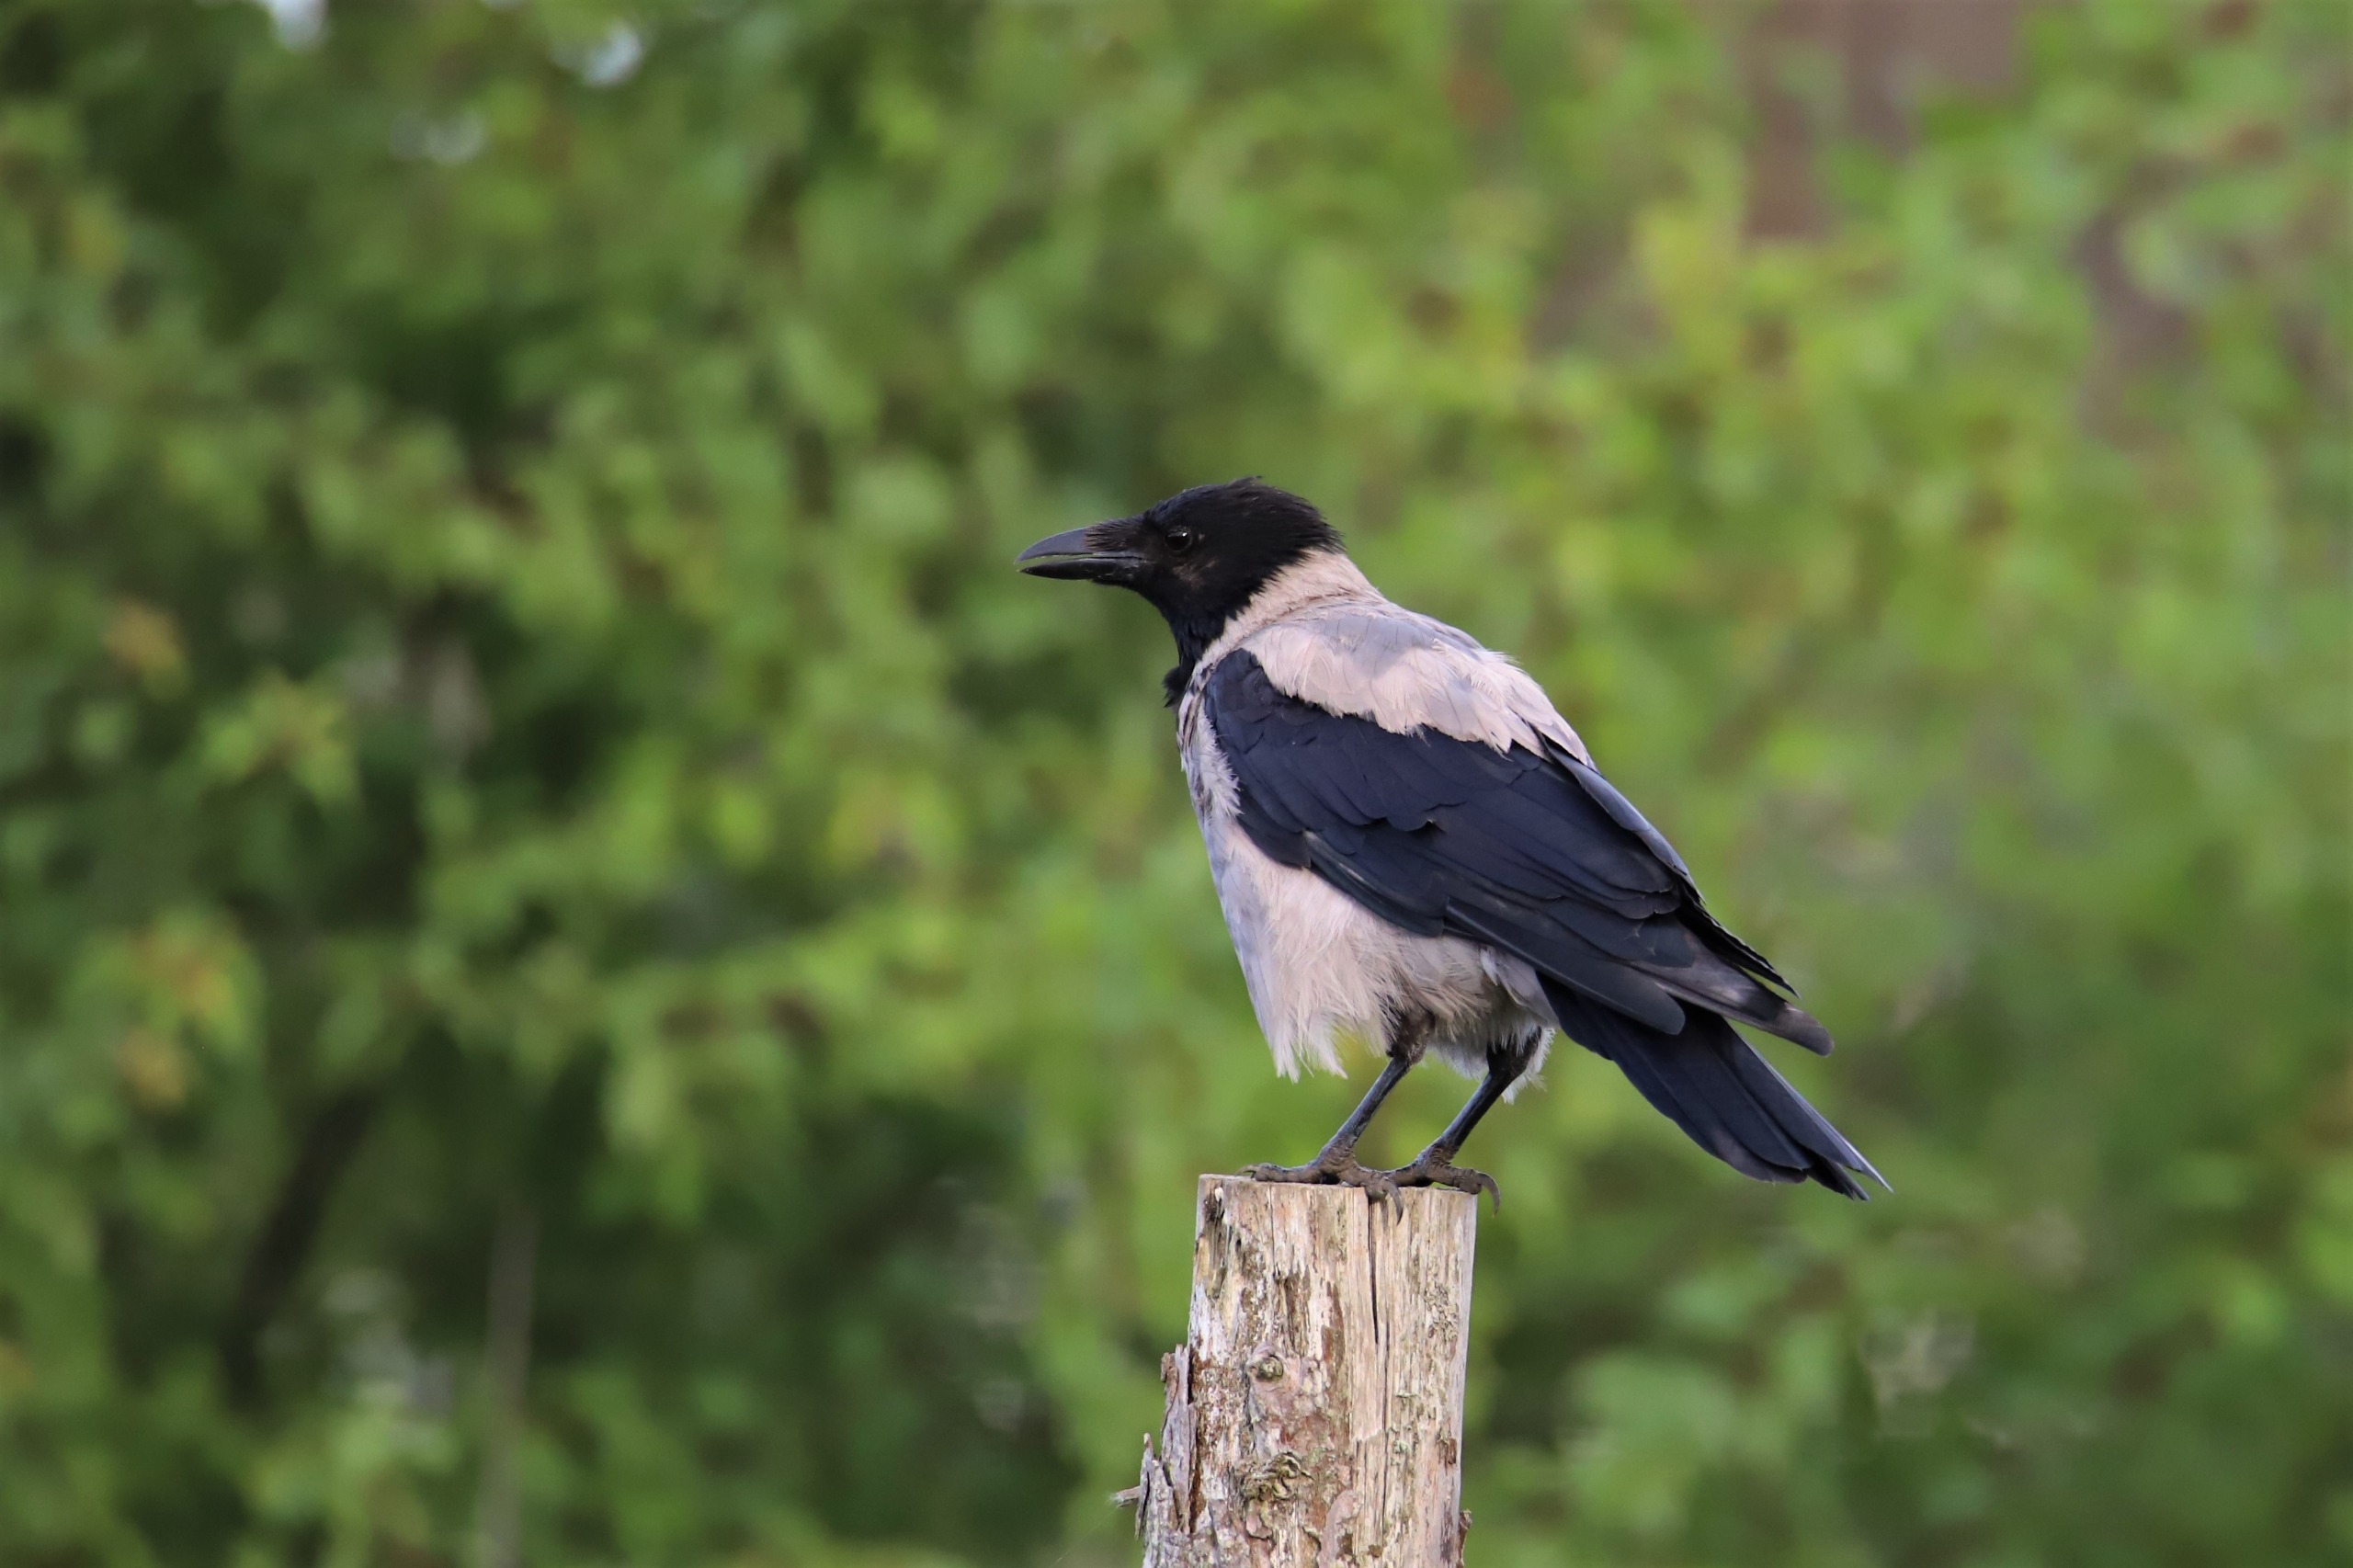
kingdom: Animalia
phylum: Chordata
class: Aves
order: Passeriformes
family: Corvidae
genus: Corvus
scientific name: Corvus cornix
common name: Gråkrage
